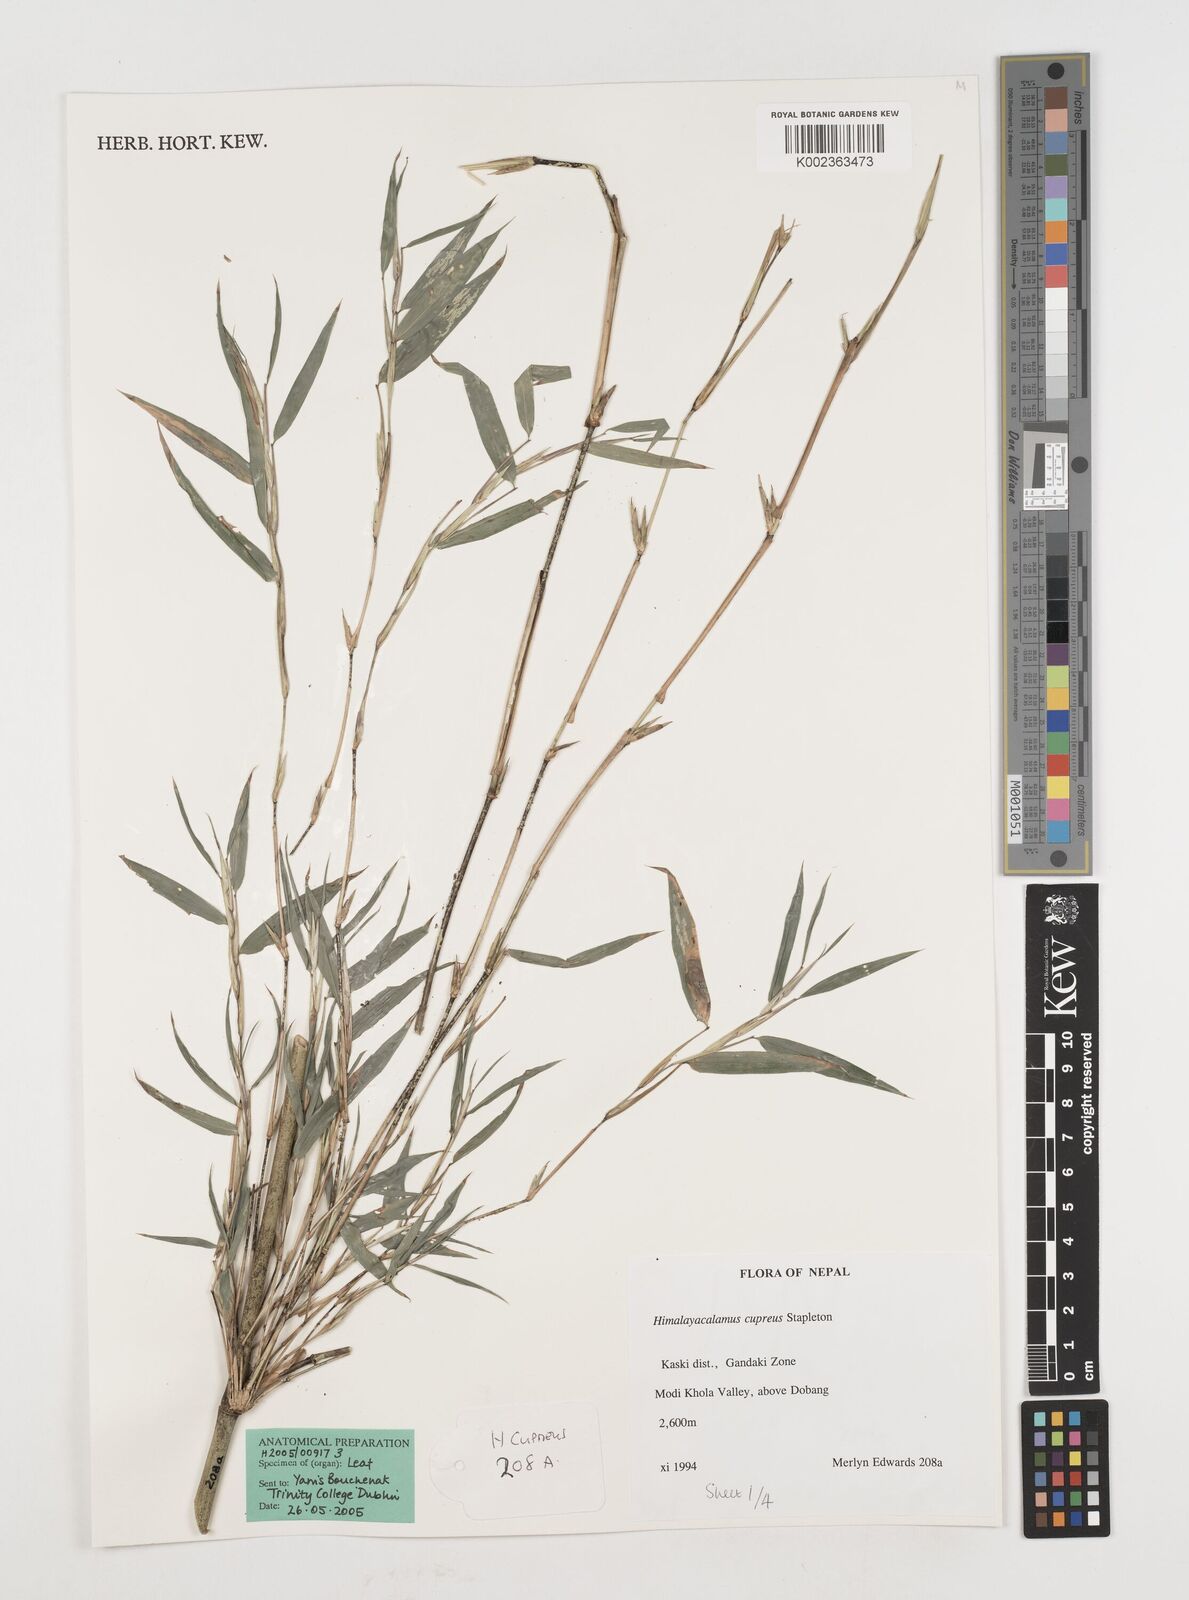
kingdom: Plantae
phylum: Tracheophyta
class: Liliopsida
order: Poales
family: Poaceae
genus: Himalayacalamus
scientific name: Himalayacalamus cupreus
